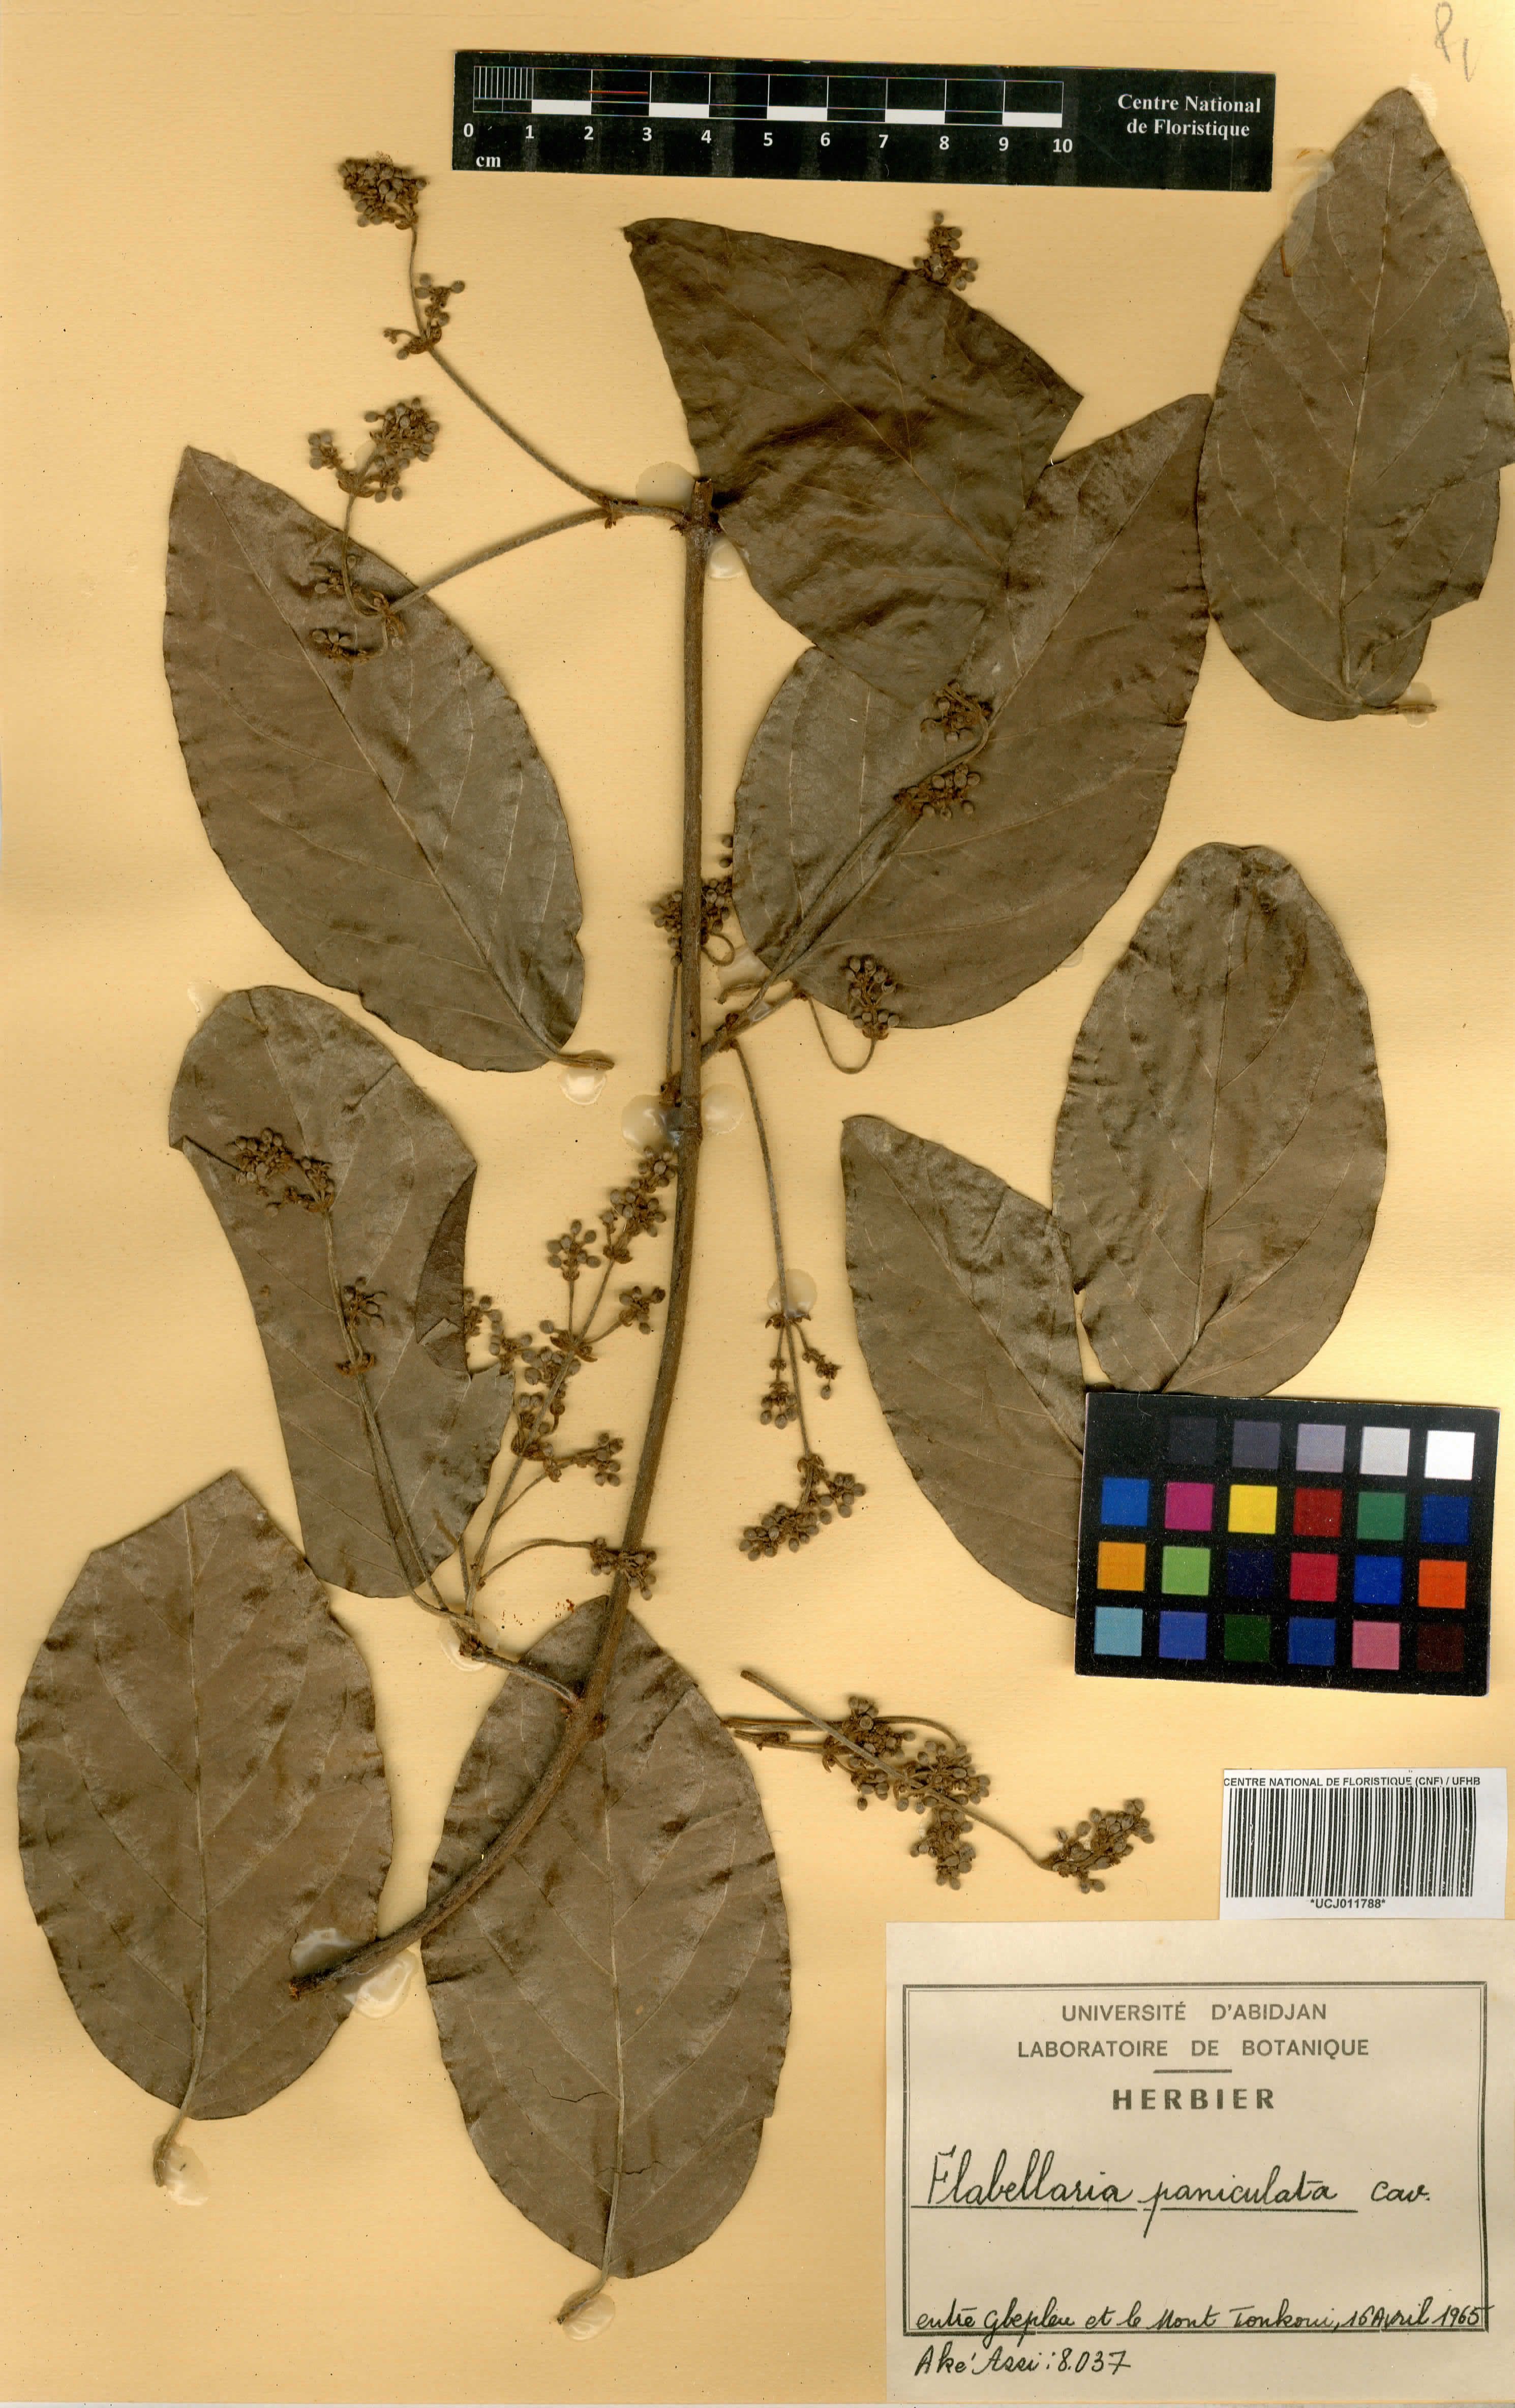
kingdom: Plantae
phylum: Tracheophyta
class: Magnoliopsida
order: Malpighiales
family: Malpighiaceae
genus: Flabellaria
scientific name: Flabellaria paniculata
